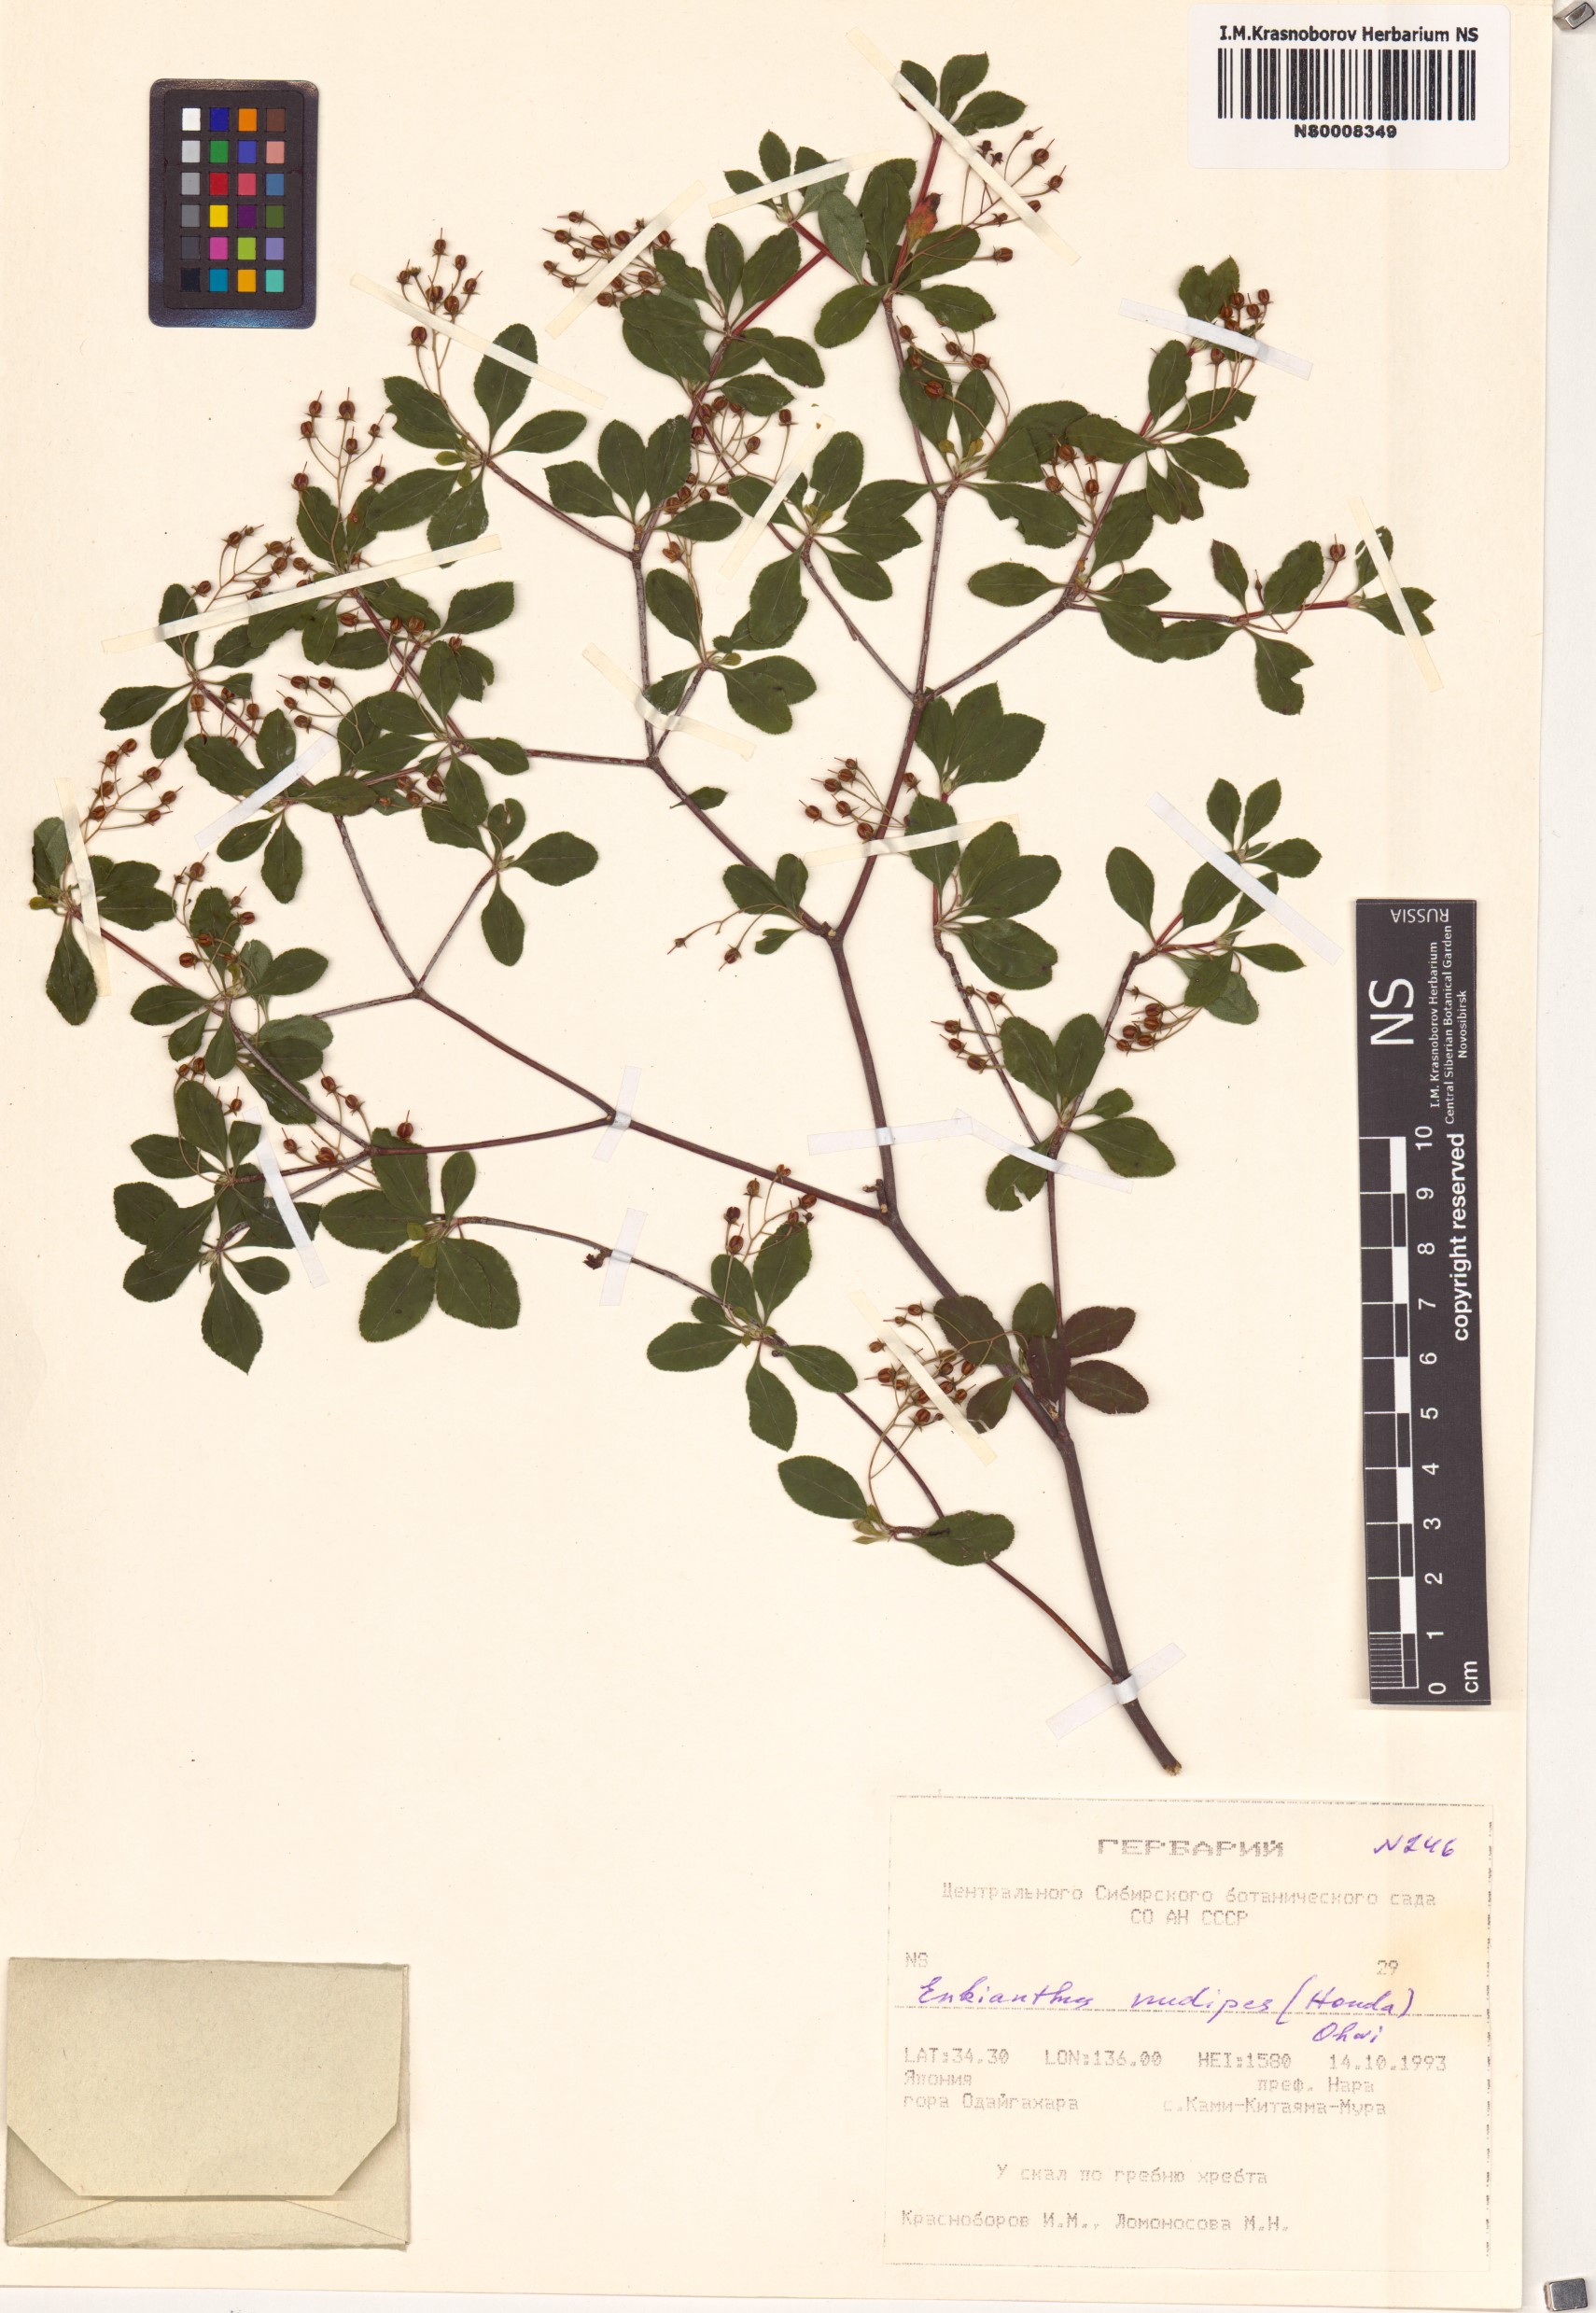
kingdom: Plantae
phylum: Tracheophyta
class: Magnoliopsida
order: Ericales
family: Ericaceae
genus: Enkianthus
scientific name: Enkianthus nudipes
